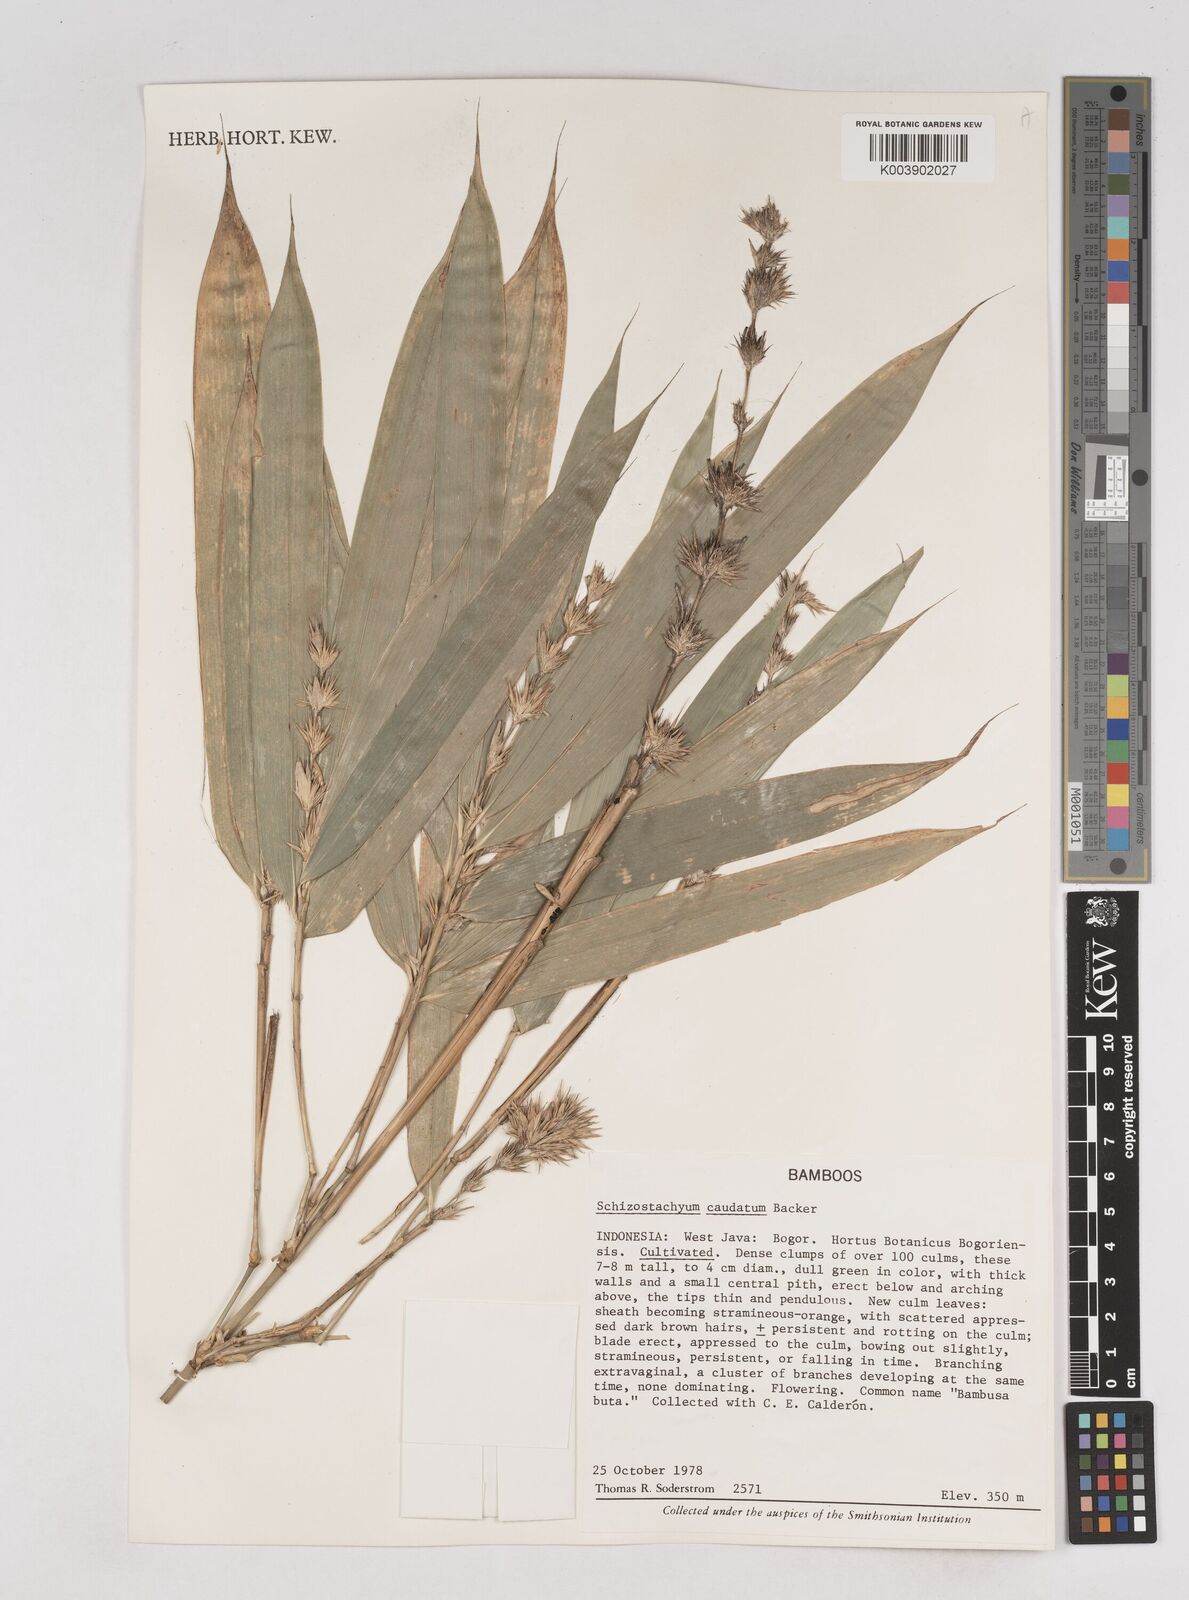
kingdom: Plantae
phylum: Tracheophyta
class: Liliopsida
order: Poales
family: Poaceae
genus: Schizostachyum
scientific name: Schizostachyum caudatum
